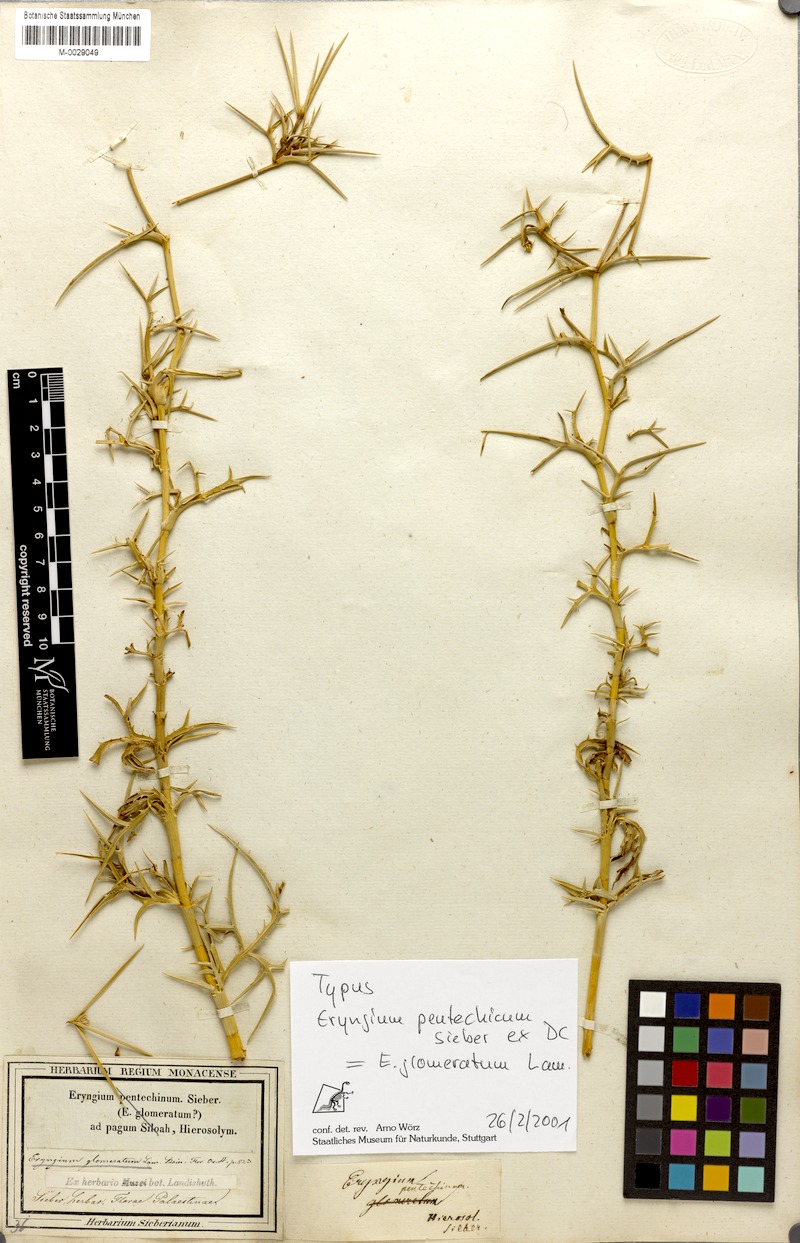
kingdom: Plantae
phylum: Tracheophyta
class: Magnoliopsida
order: Apiales
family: Apiaceae
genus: Eryngium
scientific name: Eryngium glomeratum
